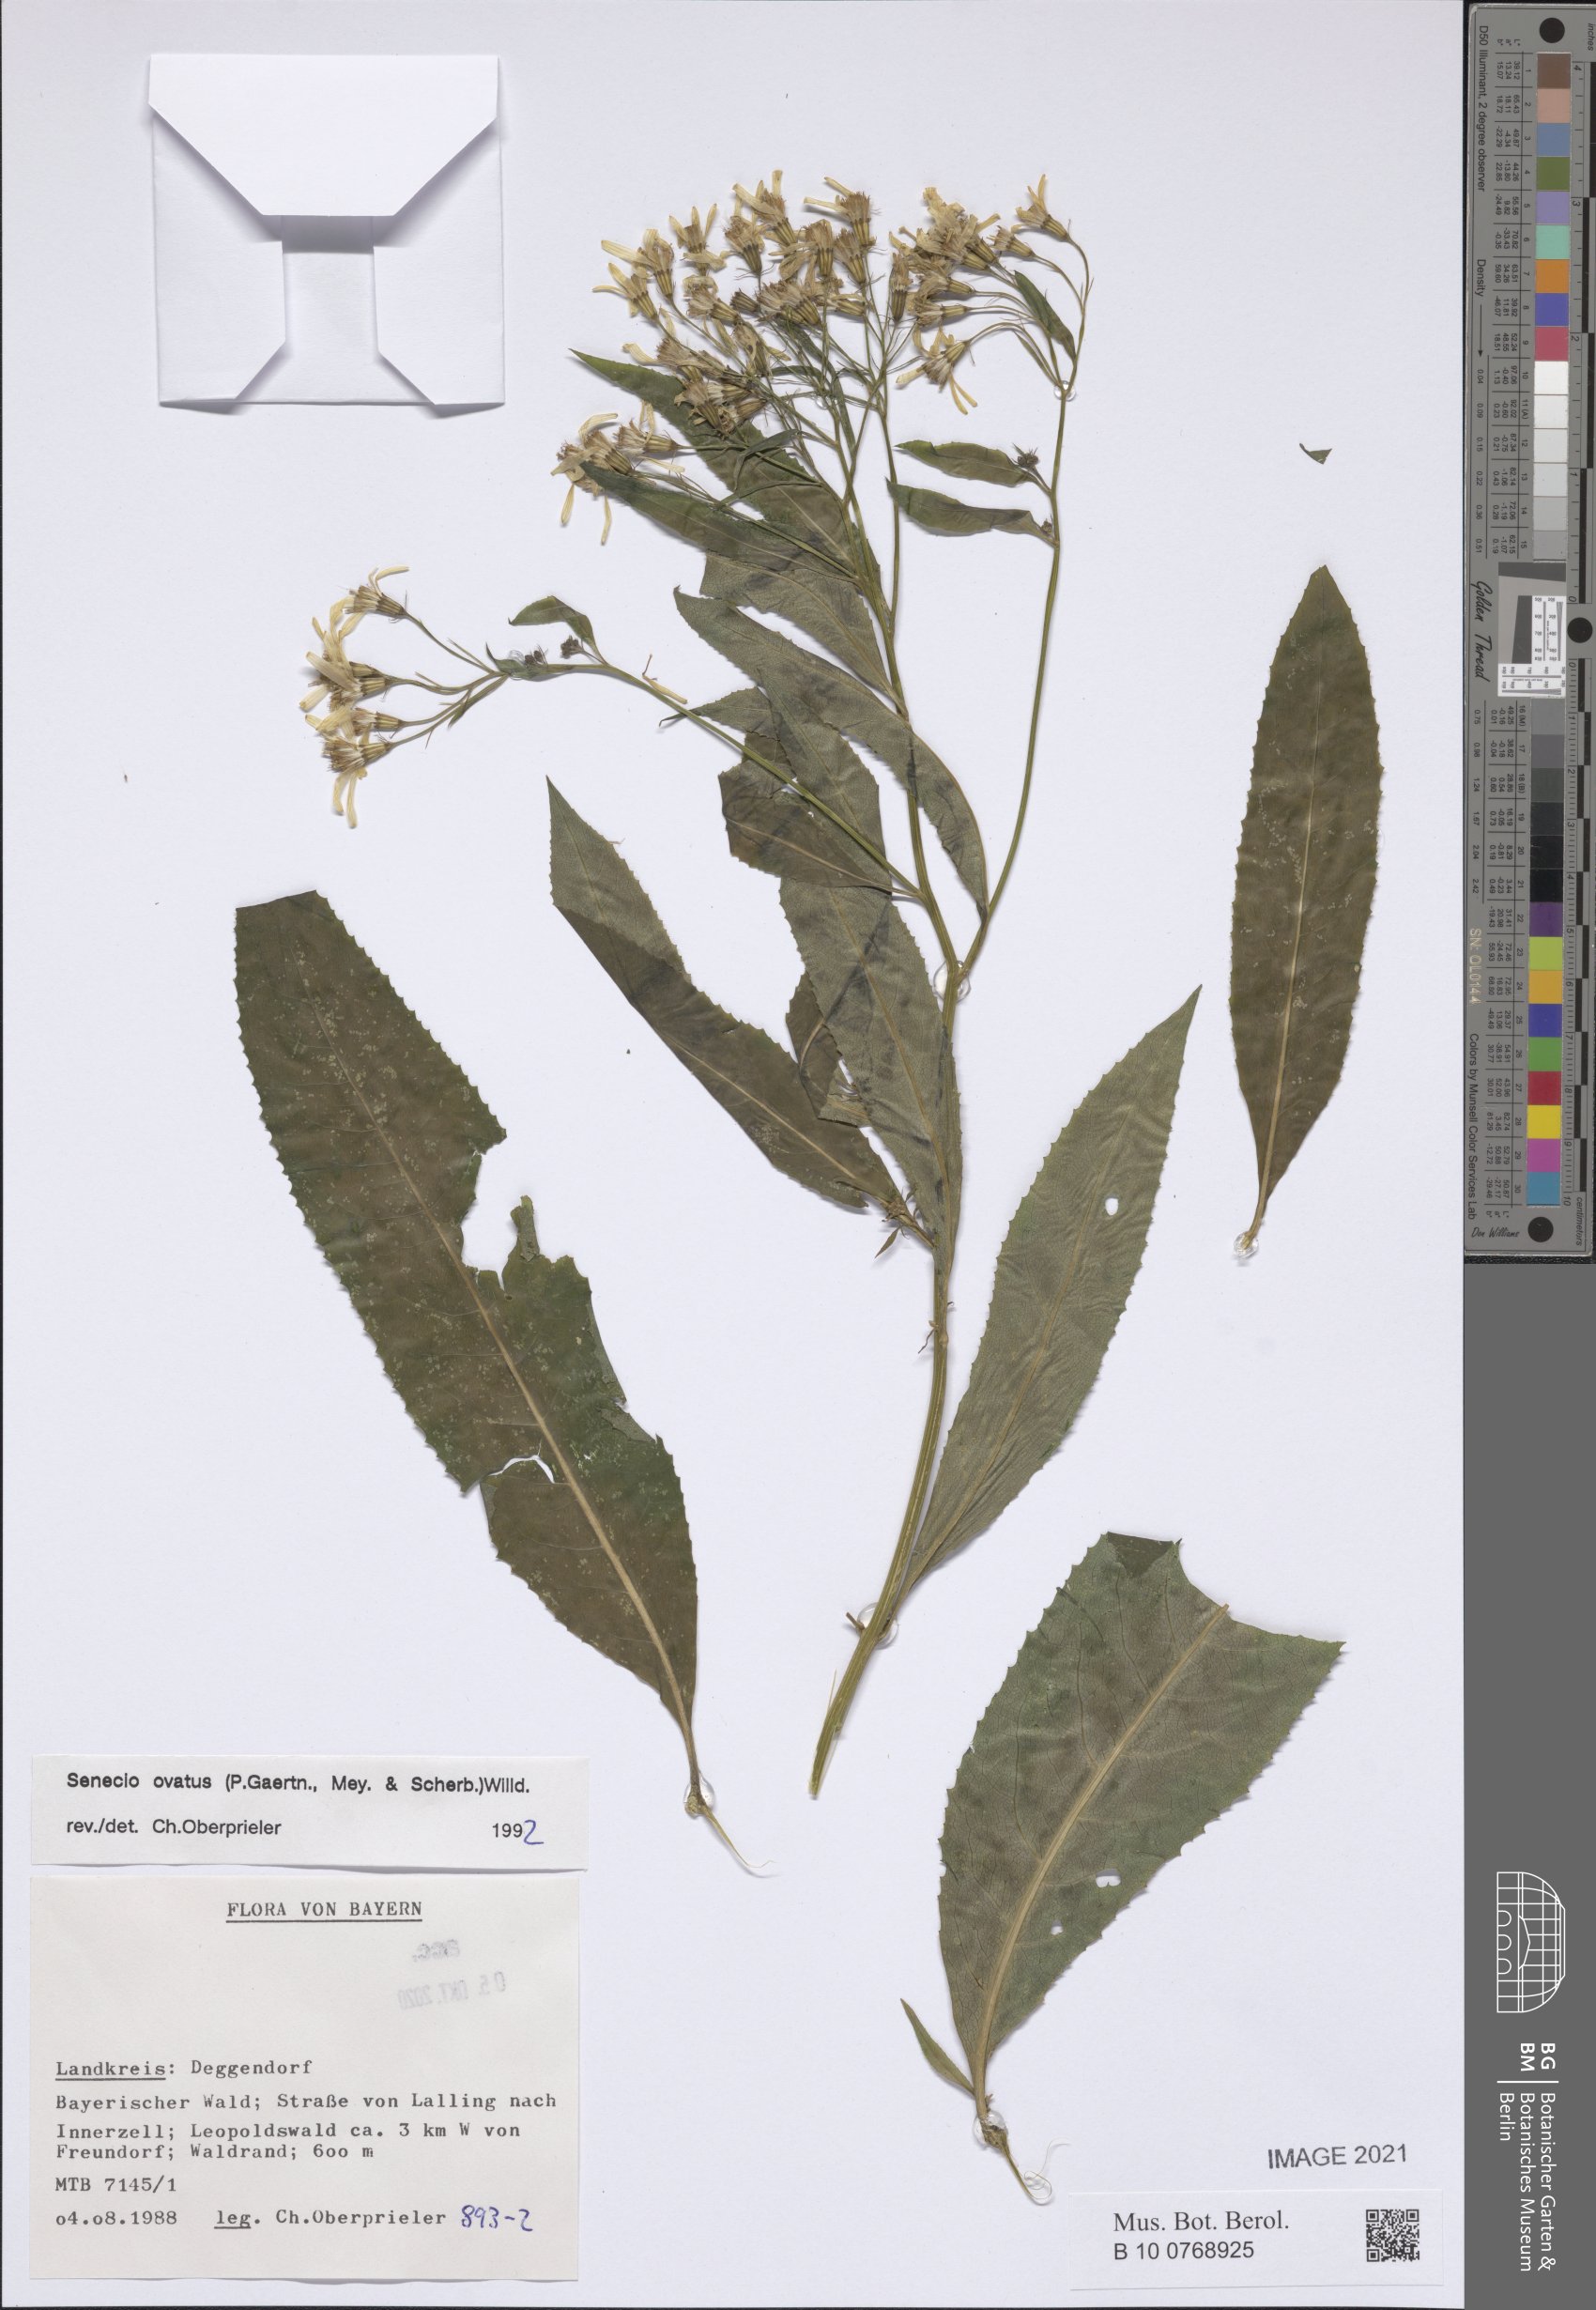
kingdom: Plantae
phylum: Tracheophyta
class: Magnoliopsida
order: Asterales
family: Asteraceae
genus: Senecio
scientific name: Senecio ovatus
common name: Wood ragwort
